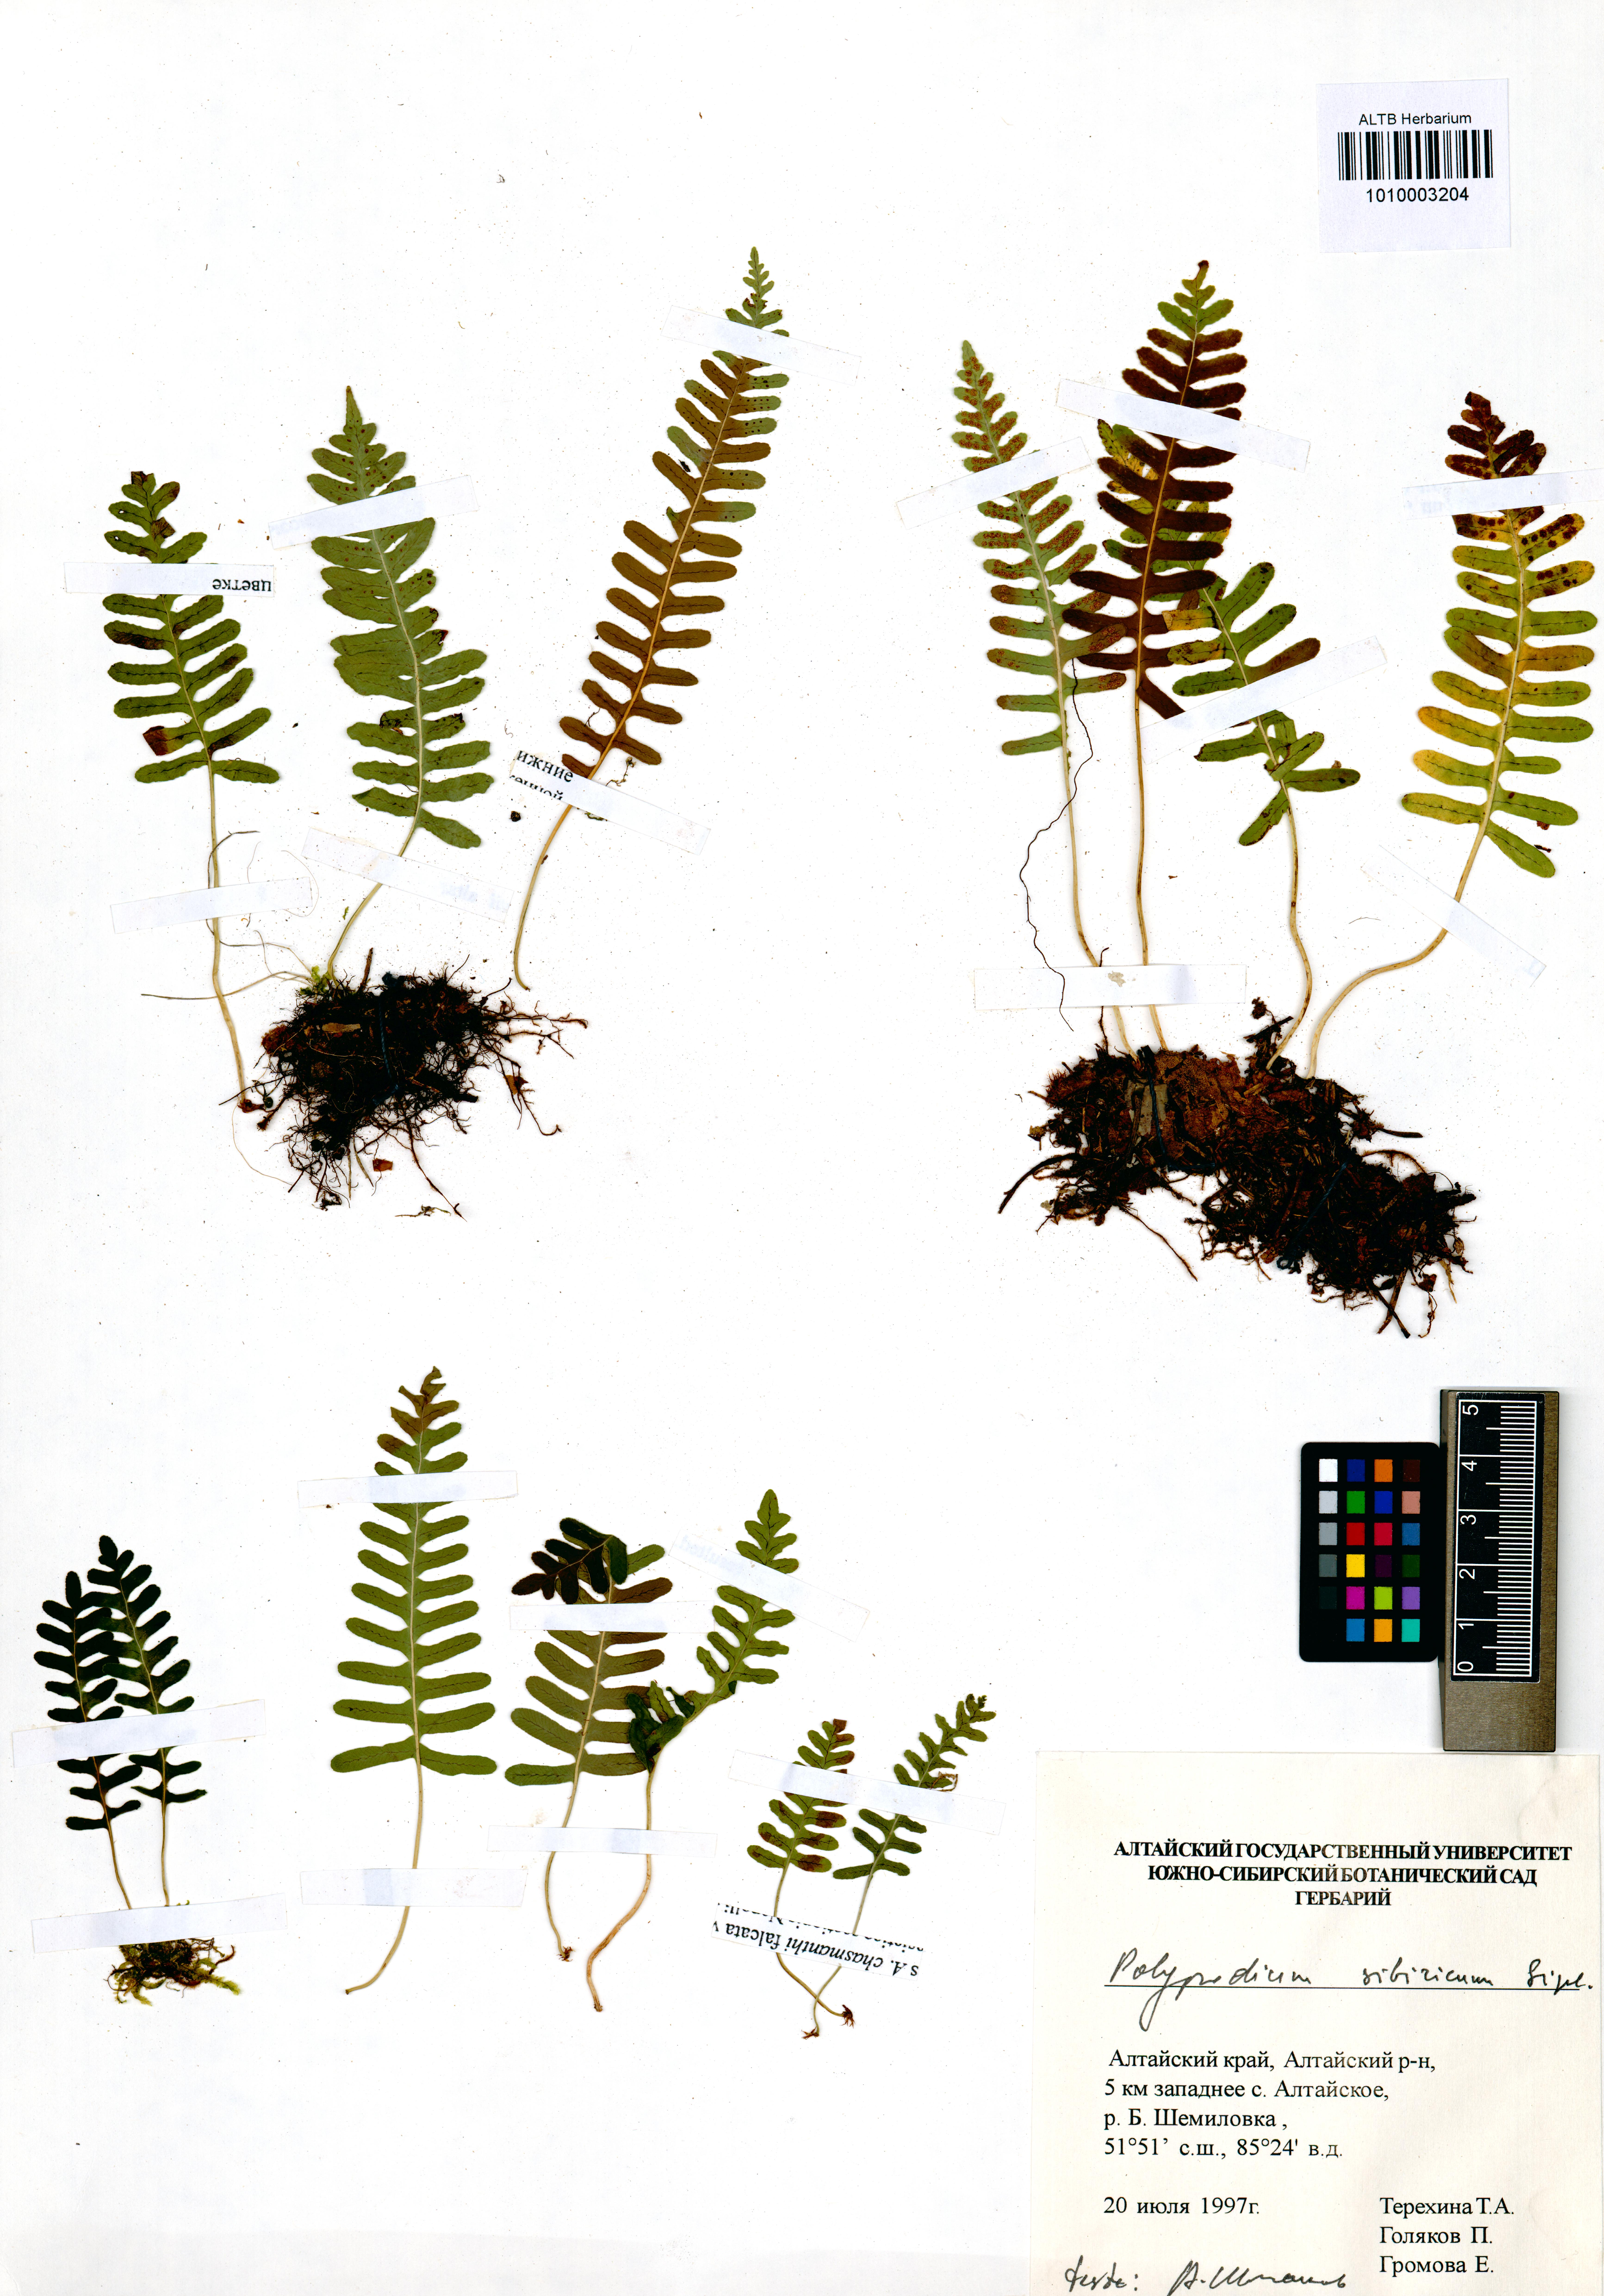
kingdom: Plantae
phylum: Tracheophyta
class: Polypodiopsida
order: Polypodiales
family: Polypodiaceae
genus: Polypodium
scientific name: Polypodium sibiricum
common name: Siberian polypody
